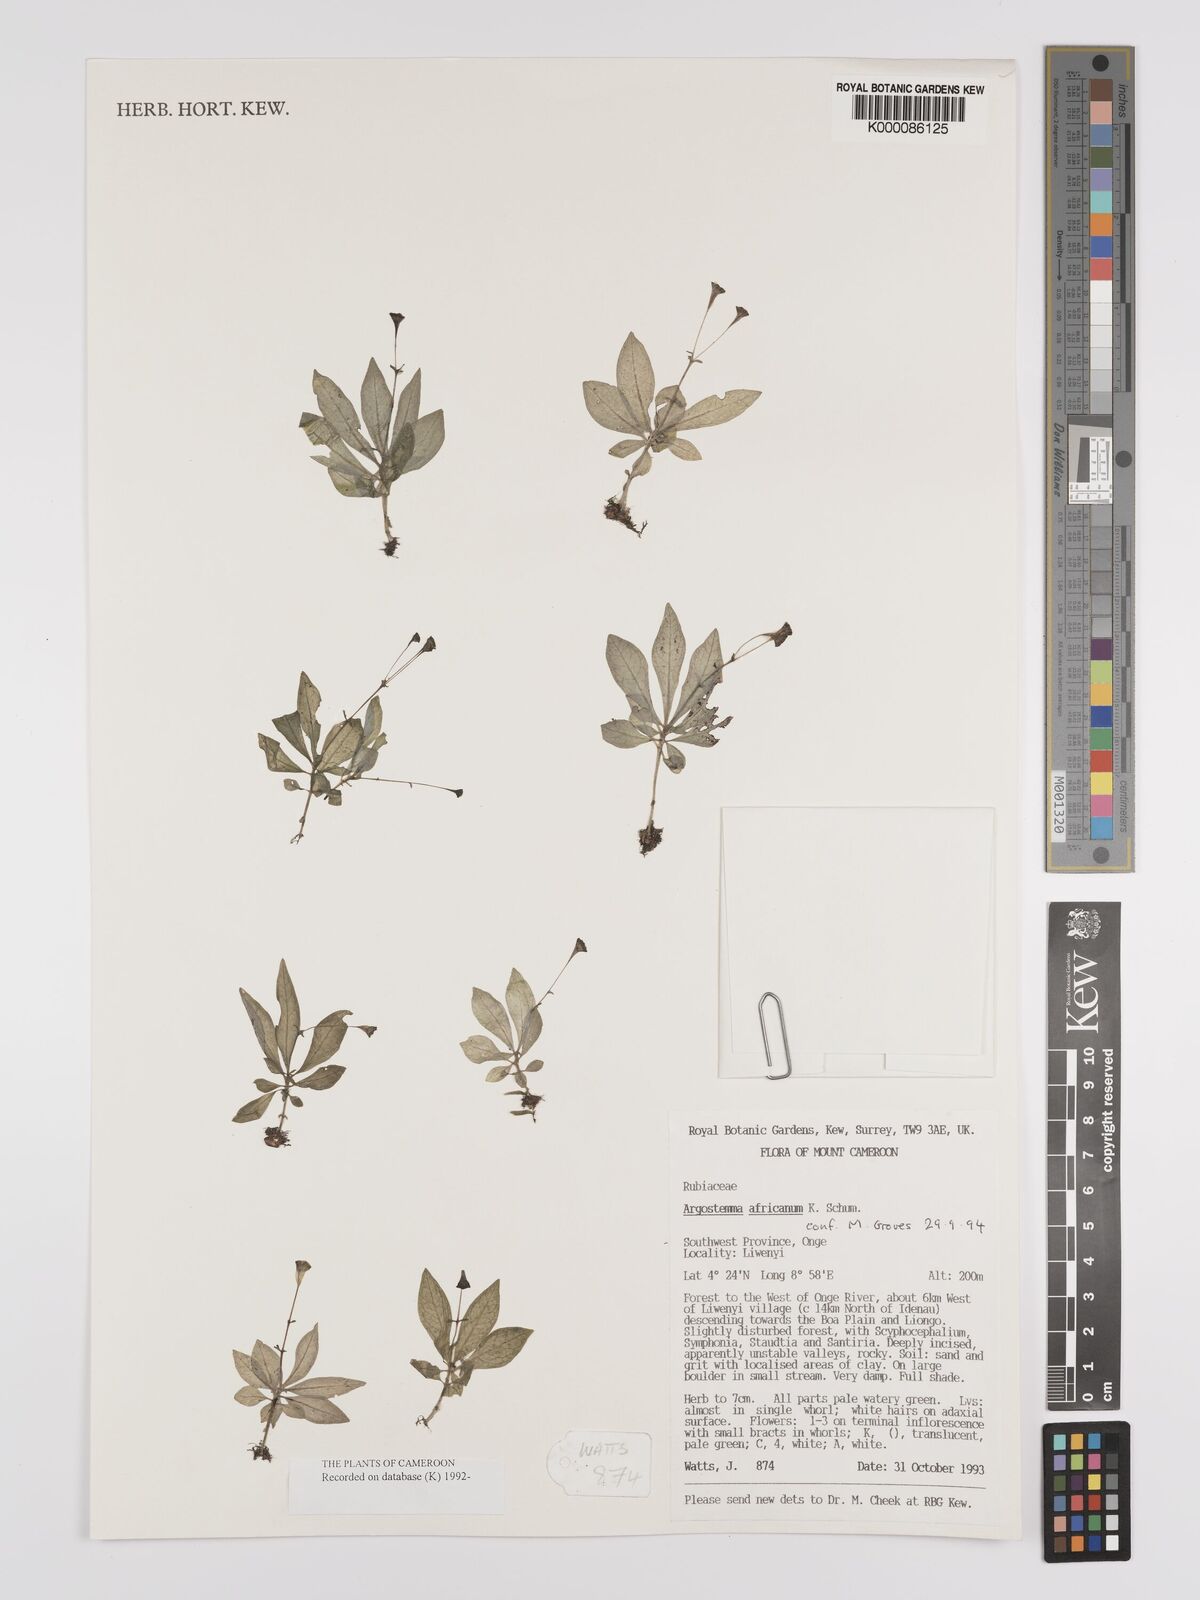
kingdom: Plantae
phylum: Tracheophyta
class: Magnoliopsida
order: Gentianales
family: Rubiaceae
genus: Argostemma
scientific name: Argostemma africanum
